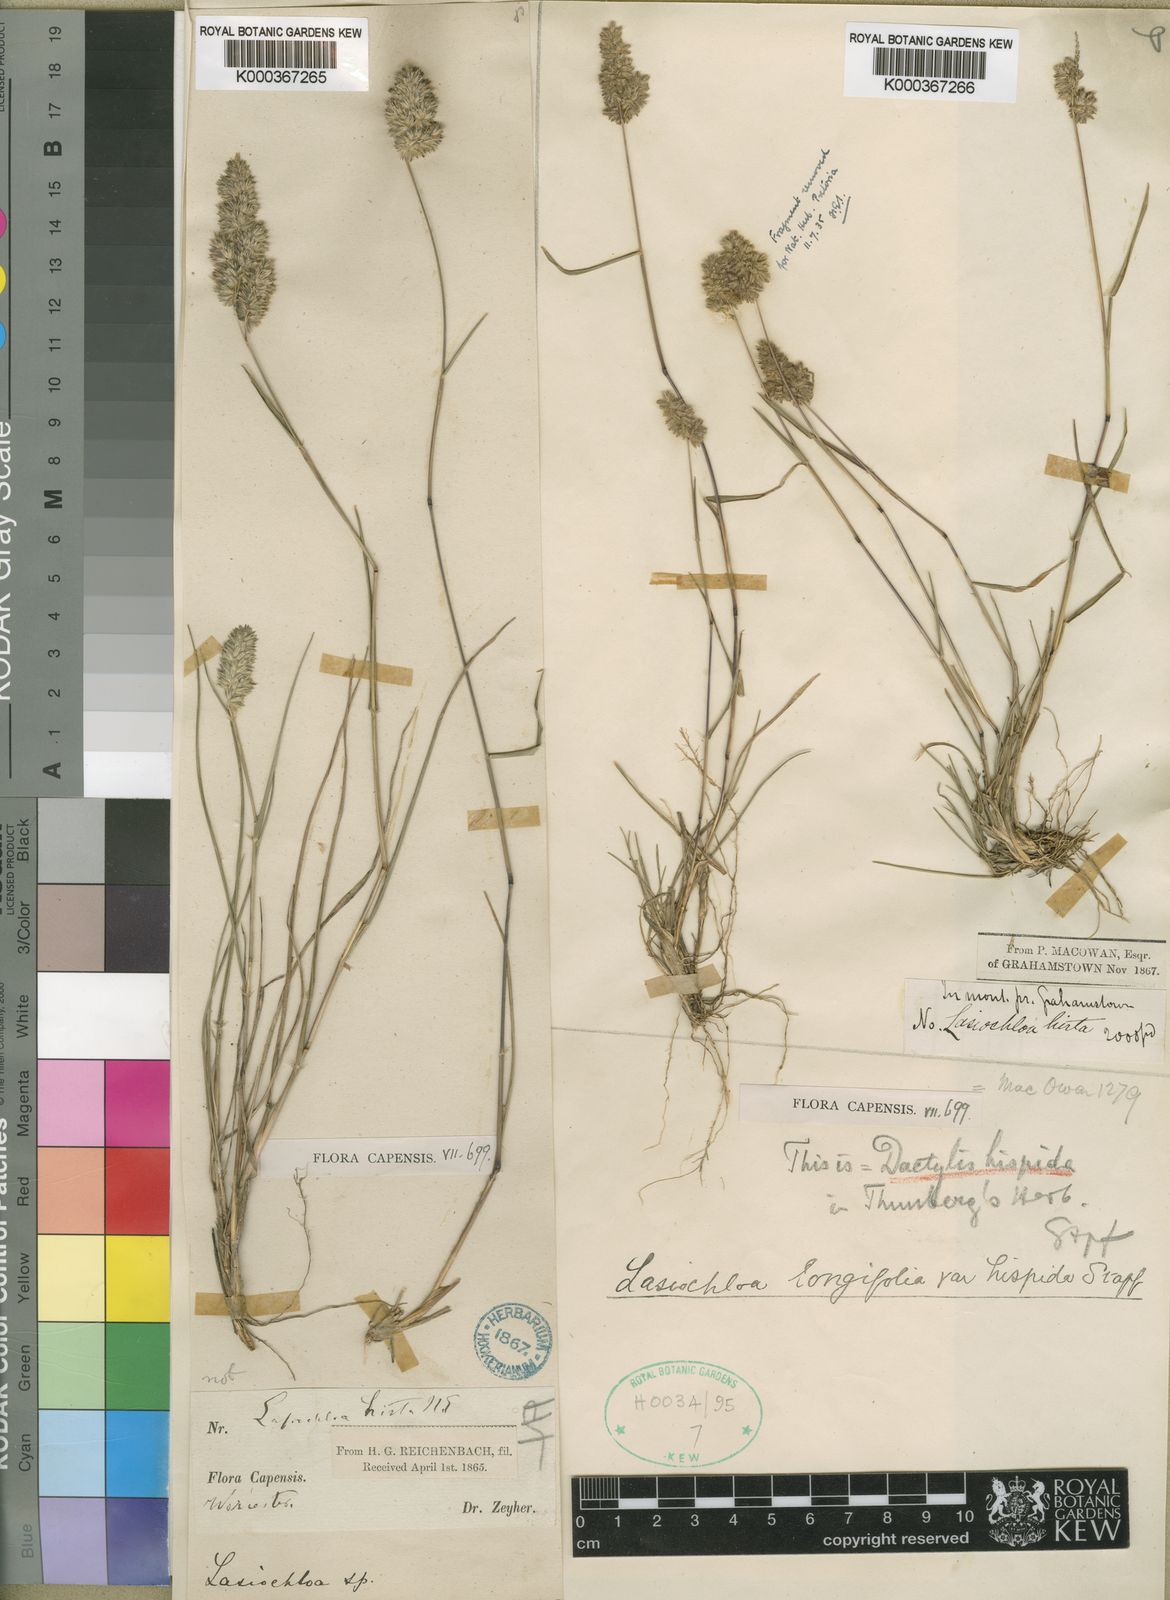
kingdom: Plantae
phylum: Tracheophyta
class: Liliopsida
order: Poales
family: Poaceae
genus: Tribolium
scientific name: Tribolium hispidum
